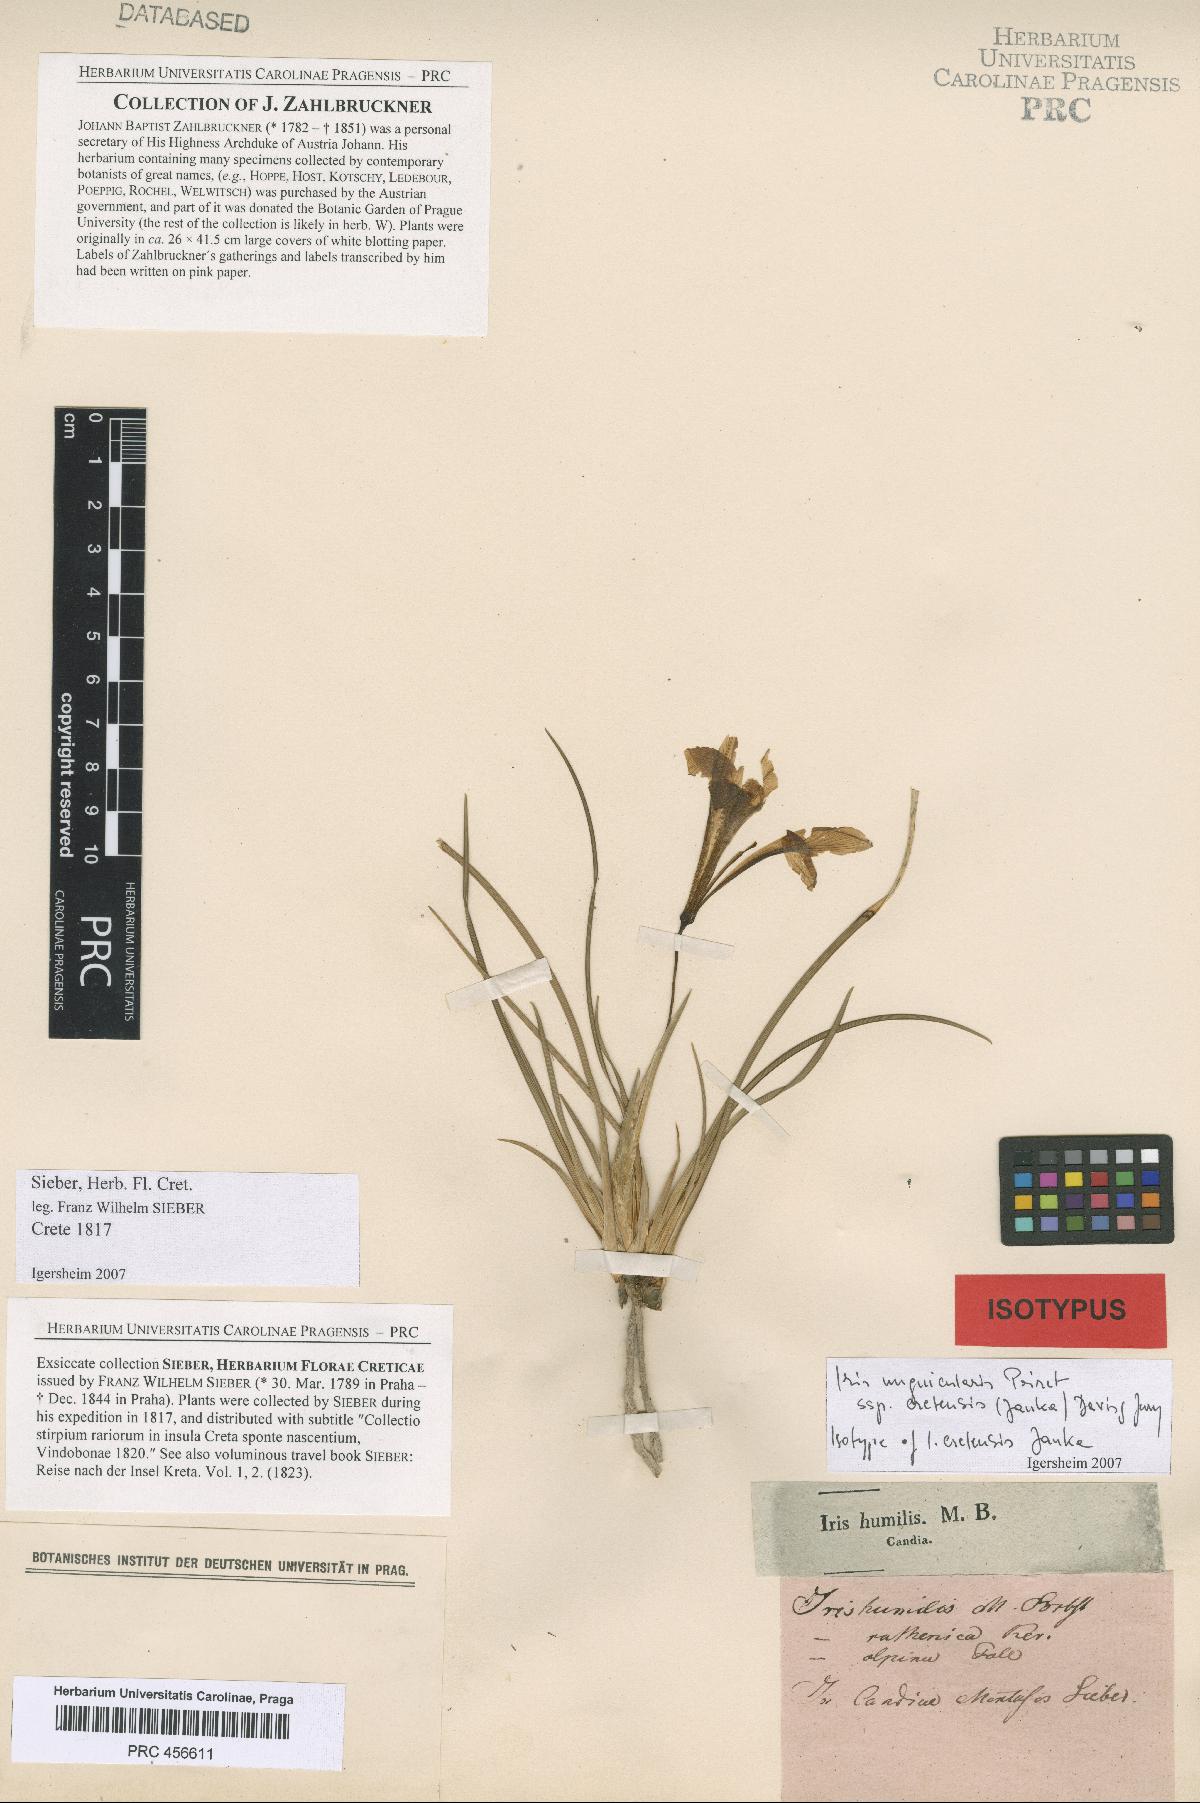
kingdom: Plantae
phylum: Tracheophyta
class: Liliopsida
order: Asparagales
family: Iridaceae
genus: Iris
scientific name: Iris unguicularis
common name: Algerian iris
